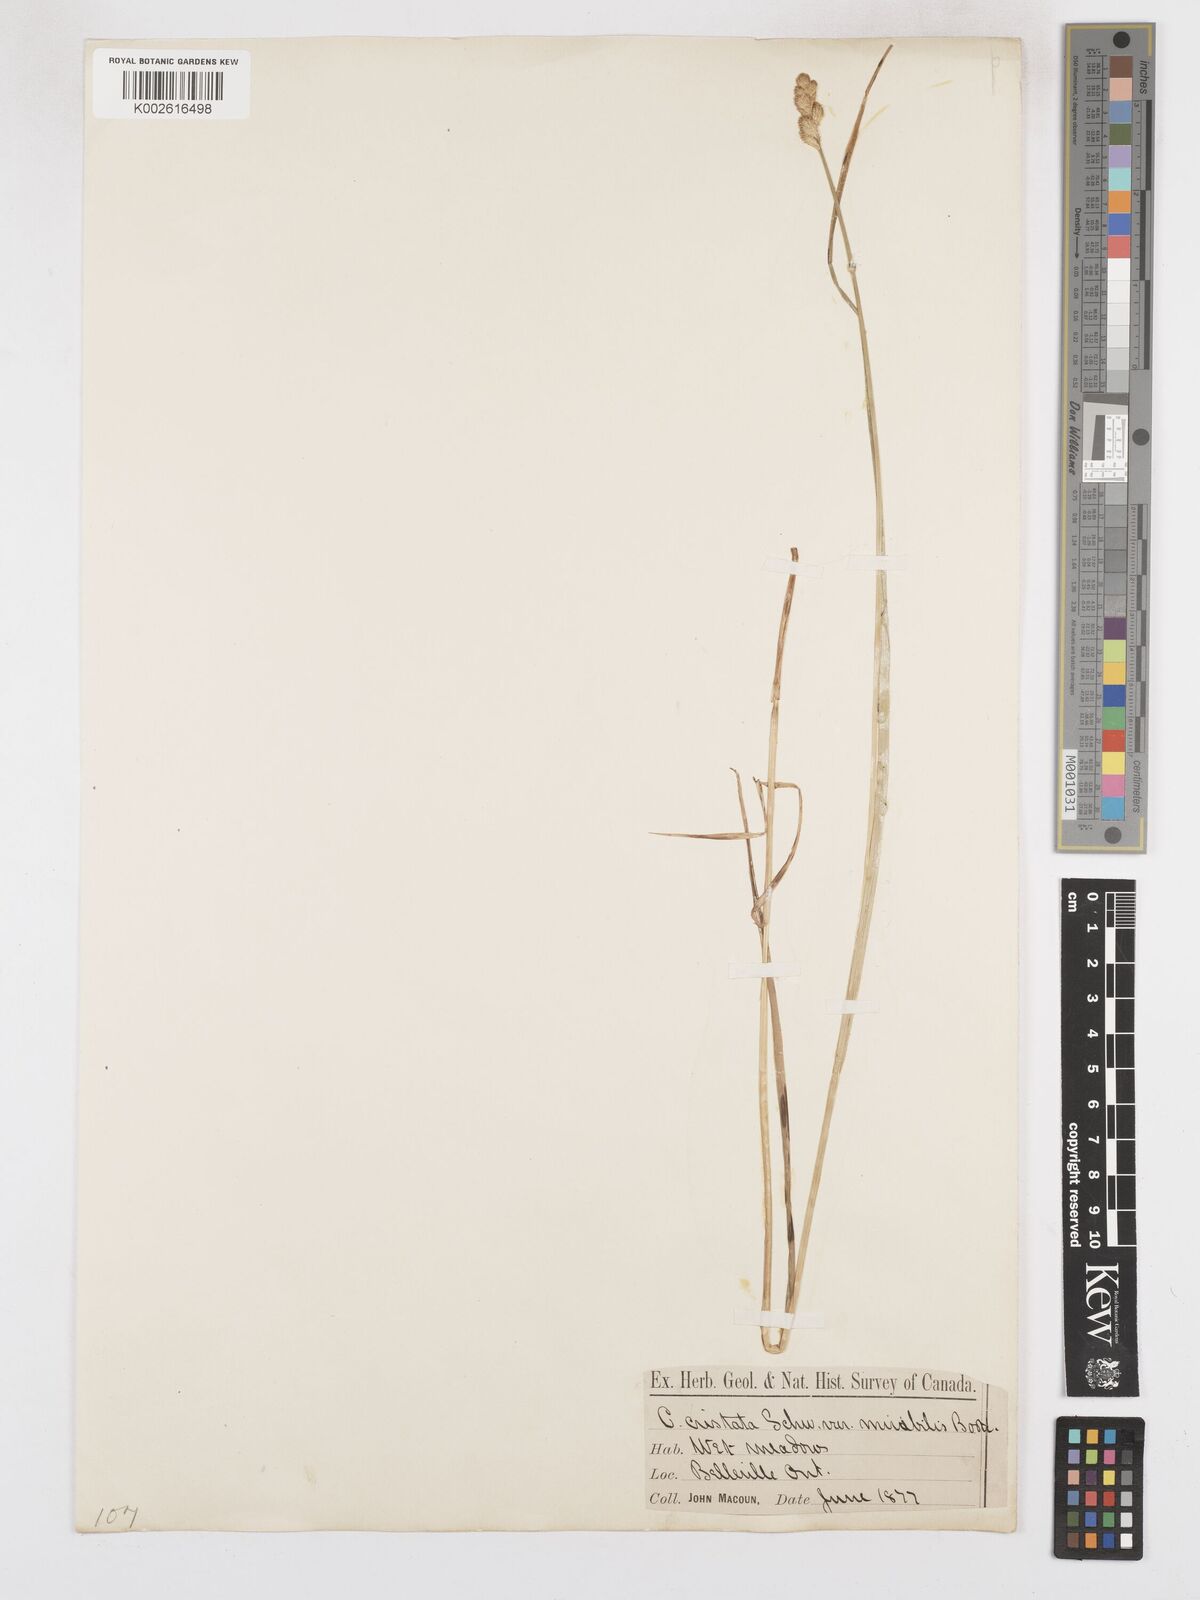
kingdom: Plantae
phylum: Tracheophyta
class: Liliopsida
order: Poales
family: Cyperaceae
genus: Carex
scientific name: Carex cristatella
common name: Crested oval sedge
